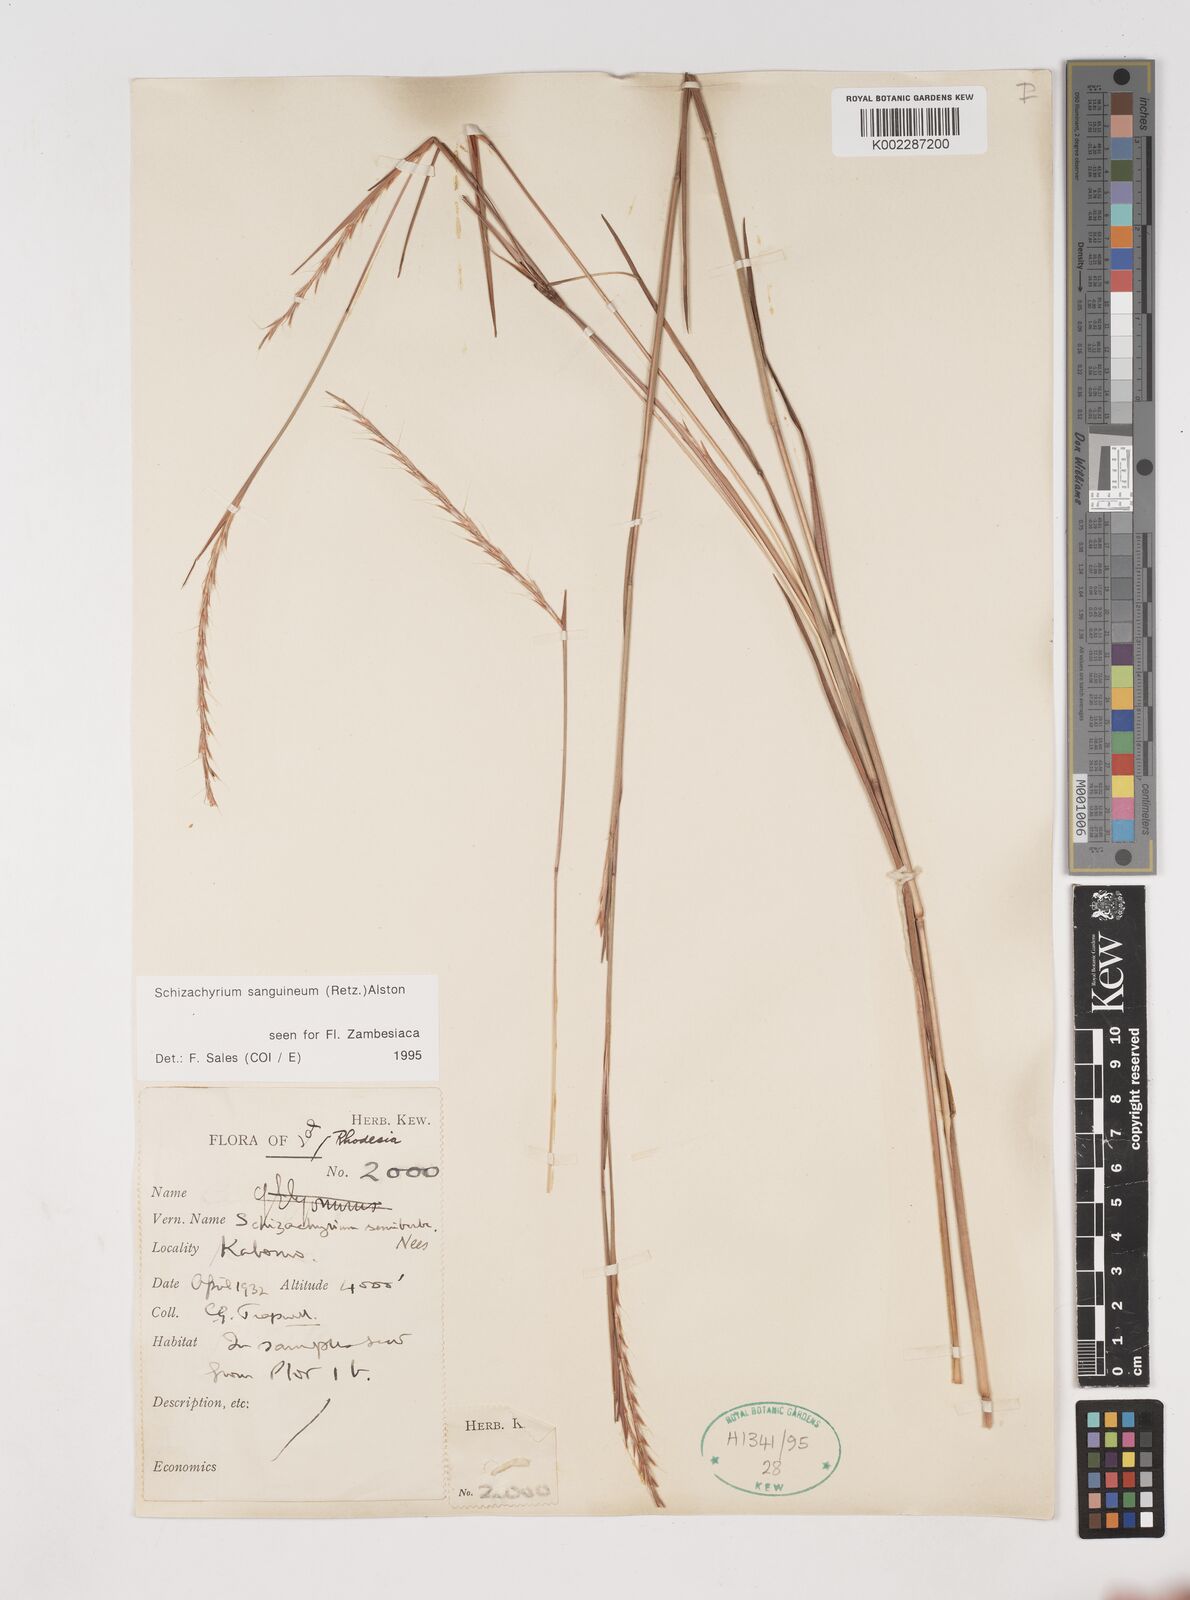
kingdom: Plantae
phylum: Tracheophyta
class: Liliopsida
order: Poales
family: Poaceae
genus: Schizachyrium
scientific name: Schizachyrium sanguineum
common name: Crimson bluestem
